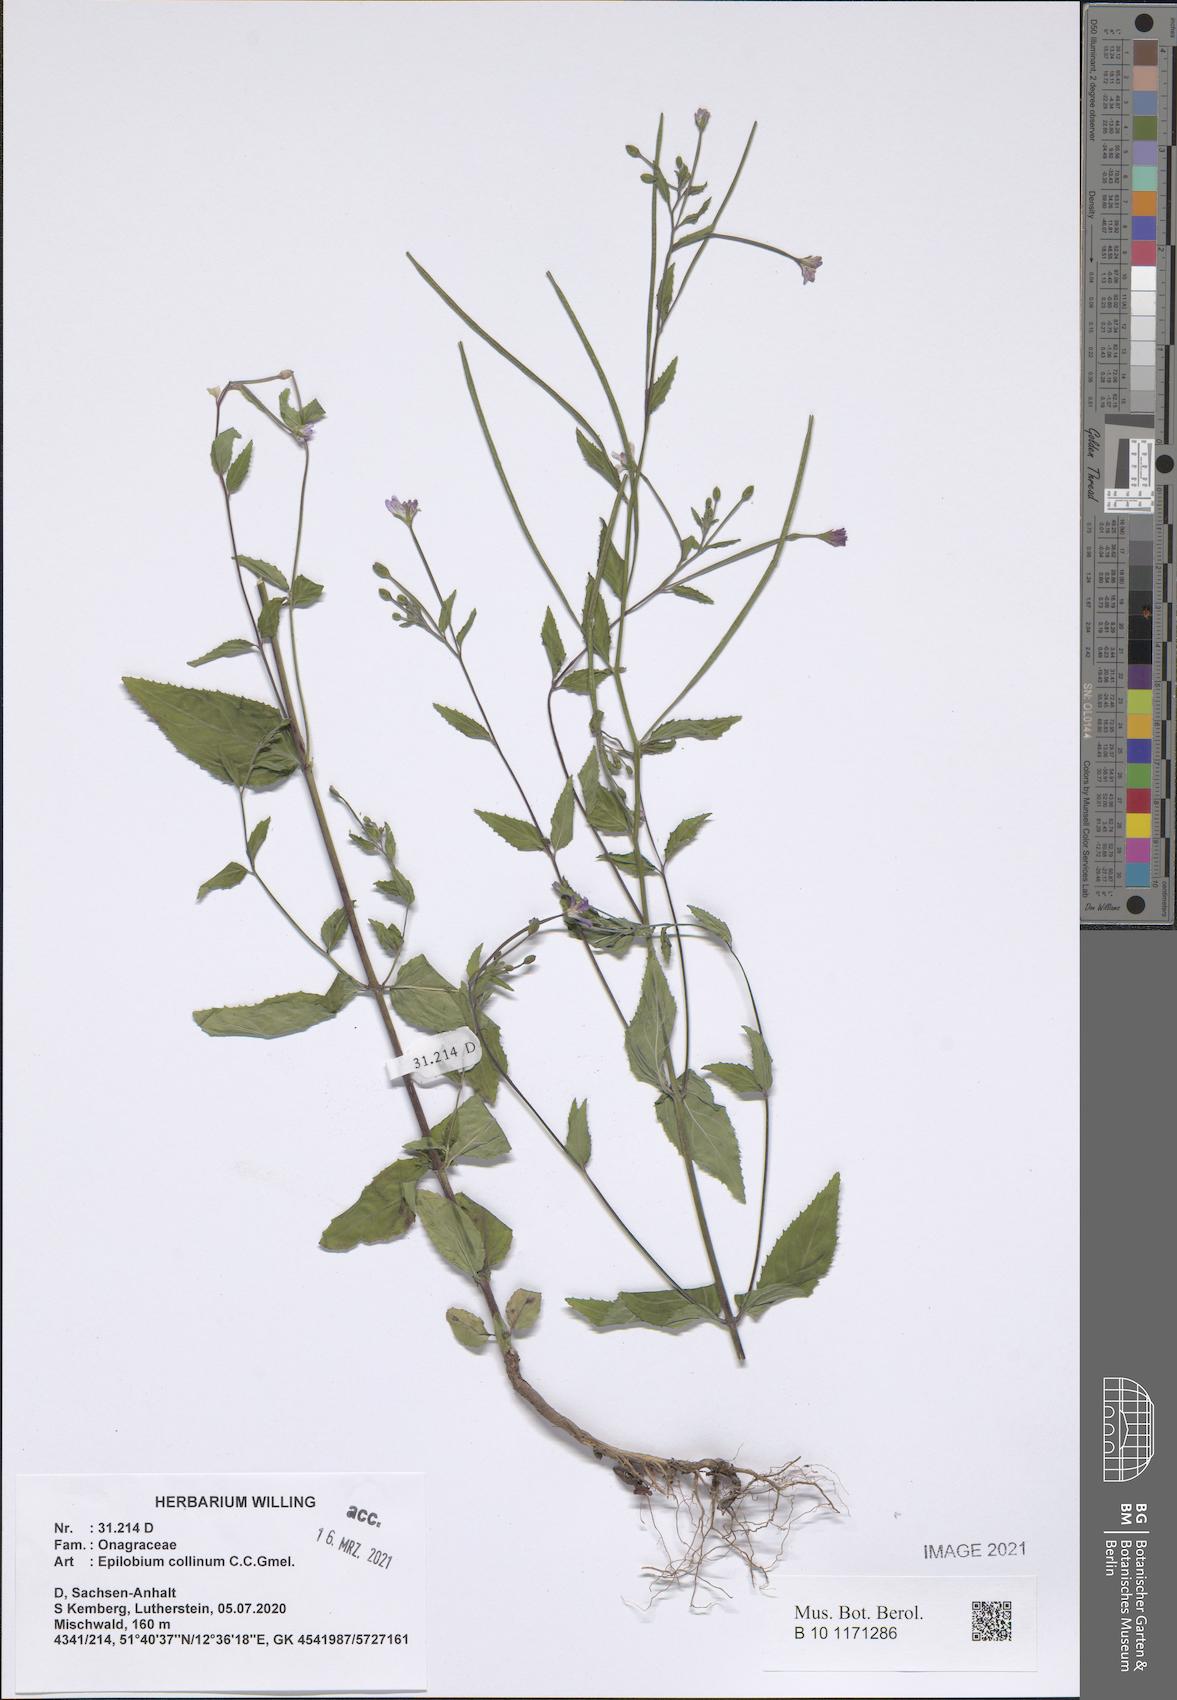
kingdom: Plantae
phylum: Tracheophyta
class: Magnoliopsida
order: Myrtales
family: Onagraceae
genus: Epilobium
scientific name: Epilobium collinum
